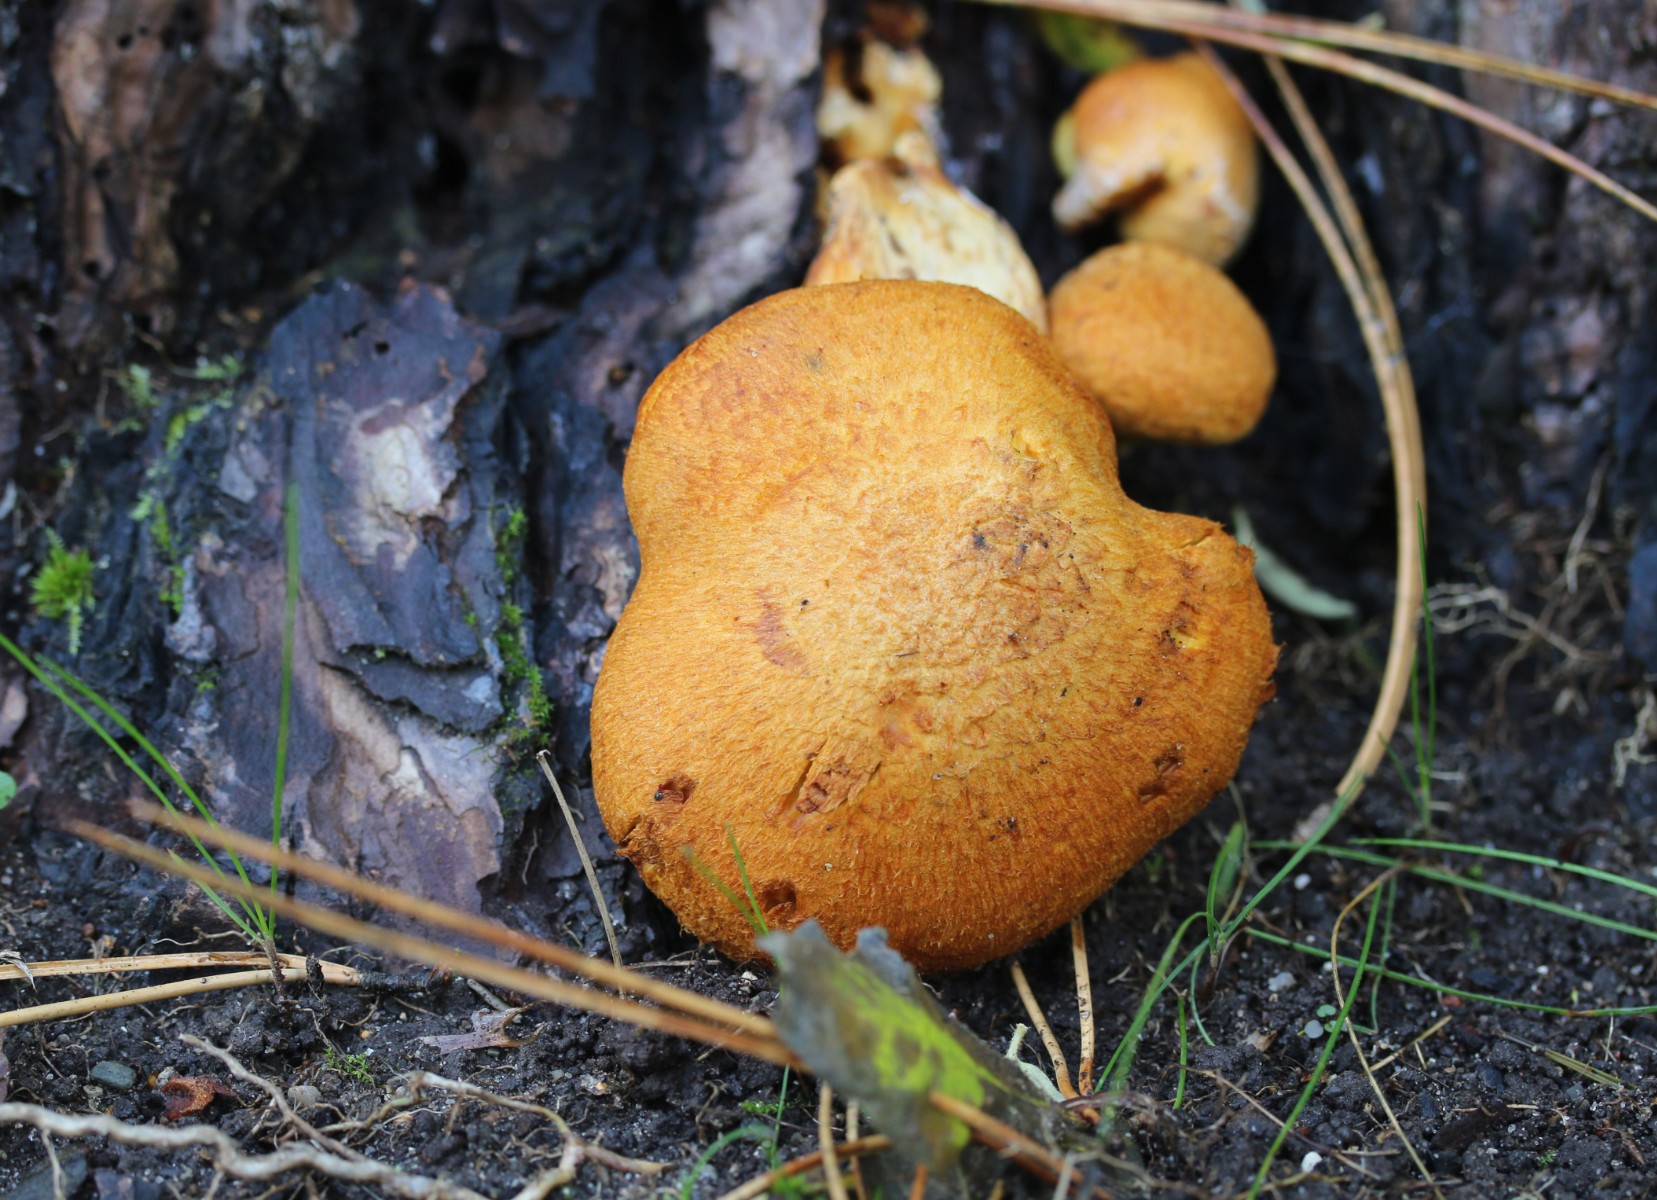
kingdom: Fungi
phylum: Basidiomycota
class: Agaricomycetes
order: Agaricales
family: Hymenogastraceae
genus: Gymnopilus
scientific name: Gymnopilus spectabilis
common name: fibret flammehat
